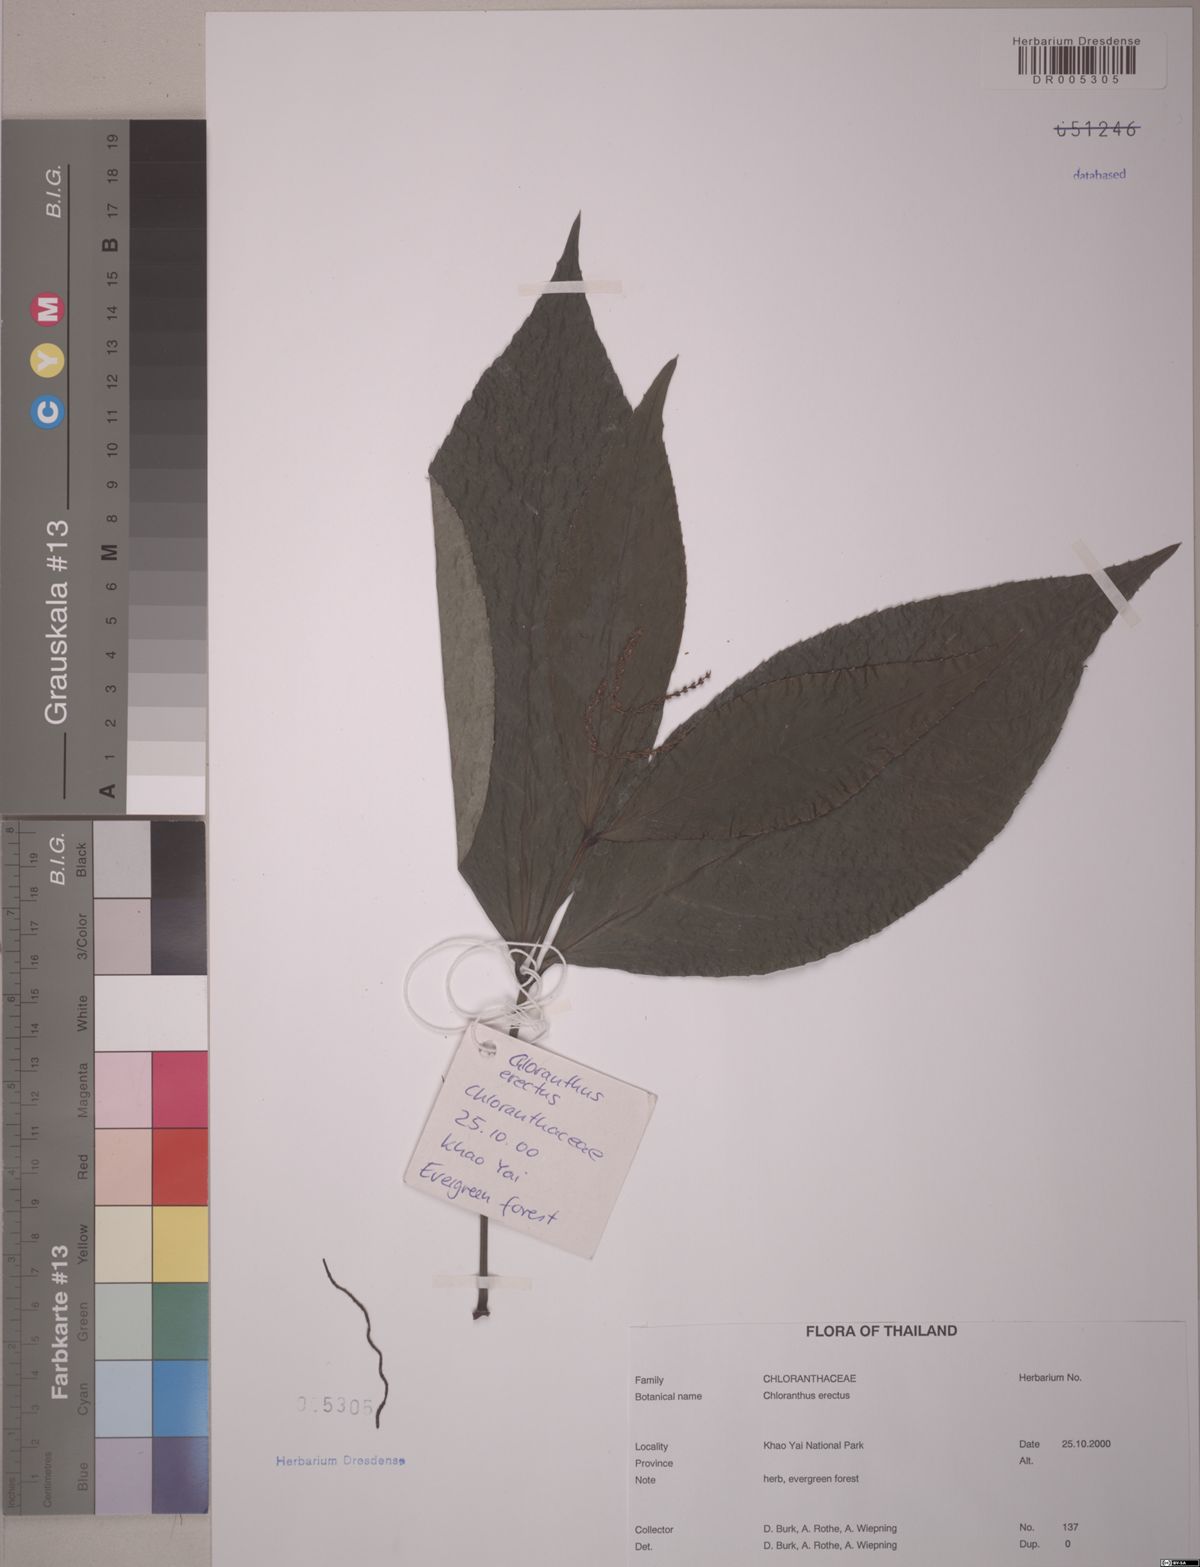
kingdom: Plantae
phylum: Tracheophyta
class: Magnoliopsida
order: Chloranthales
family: Chloranthaceae
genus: Chloranthus
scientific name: Chloranthus elatior
